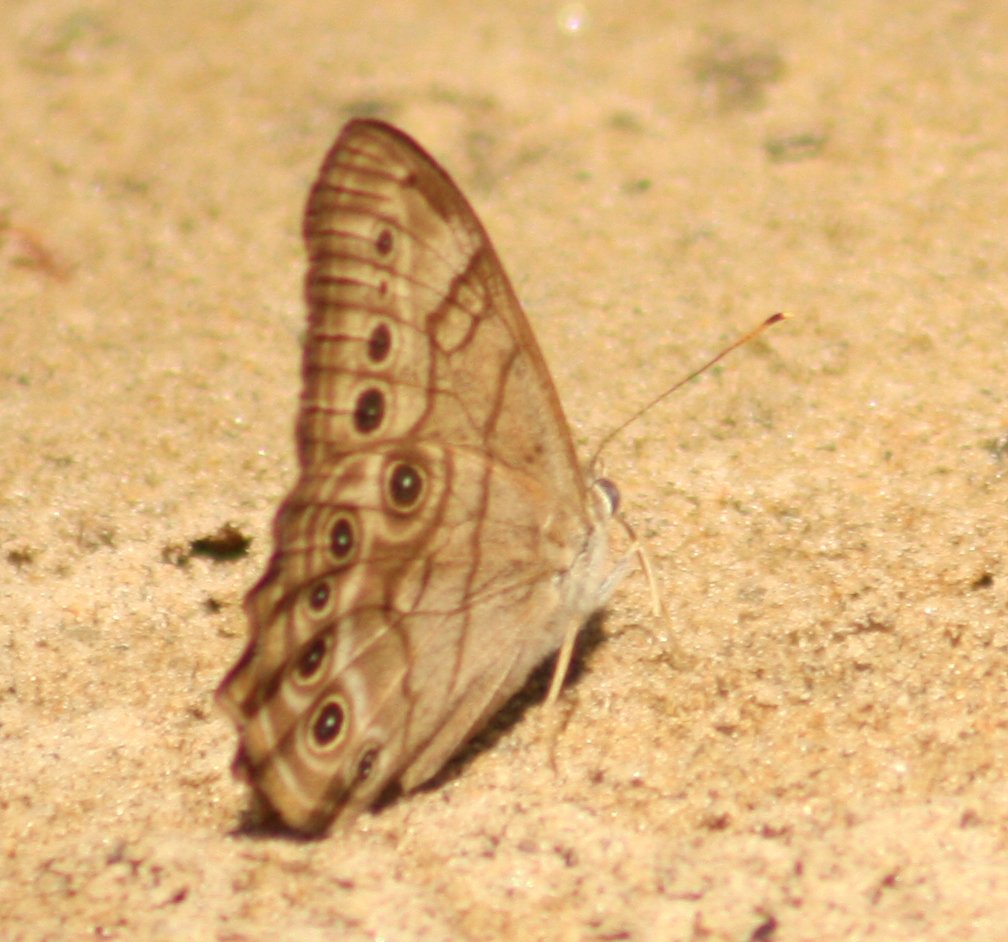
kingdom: Animalia
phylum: Arthropoda
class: Insecta
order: Lepidoptera
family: Nymphalidae
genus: Lethe
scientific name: Lethe anthedon
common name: Northern Pearly-Eye
